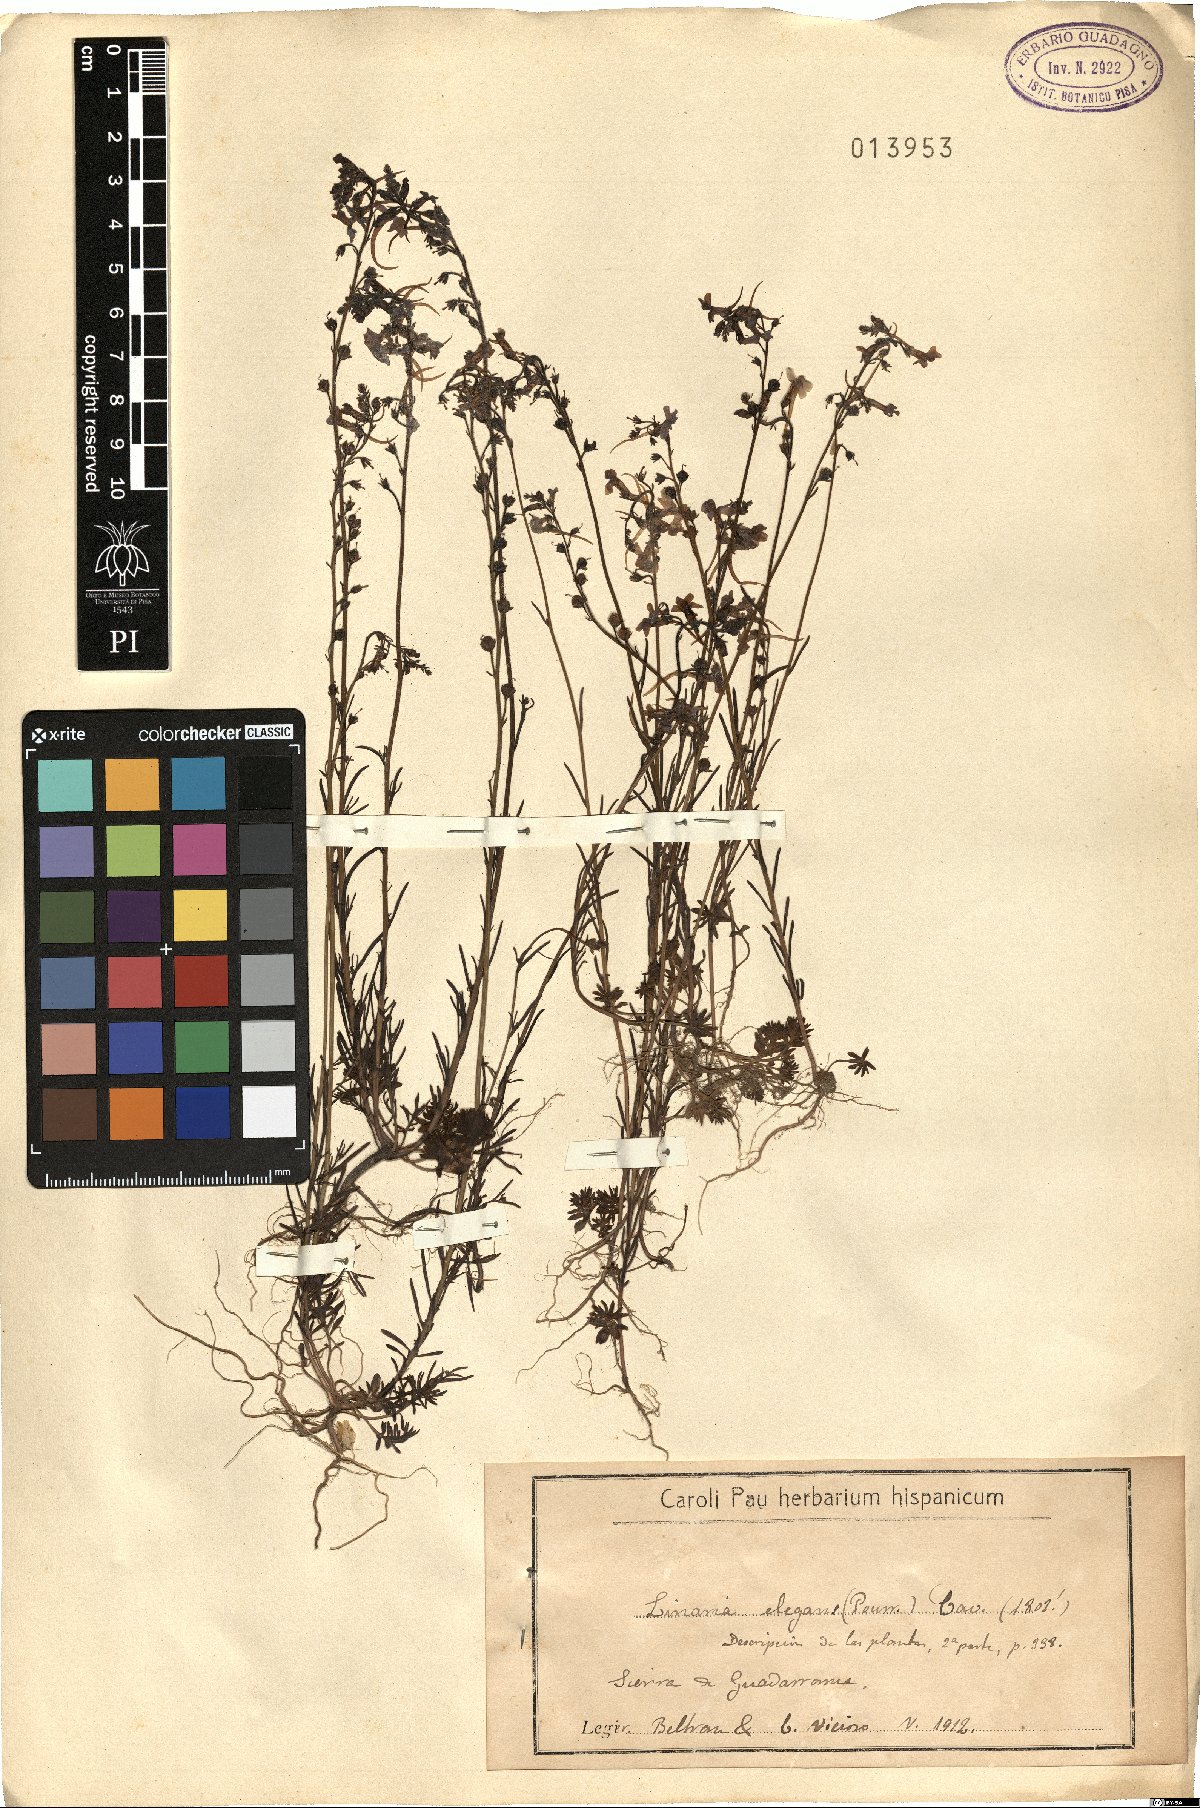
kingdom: Plantae
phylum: Tracheophyta
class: Magnoliopsida
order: Lamiales
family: Plantaginaceae
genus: Linaria
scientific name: Linaria elegans
